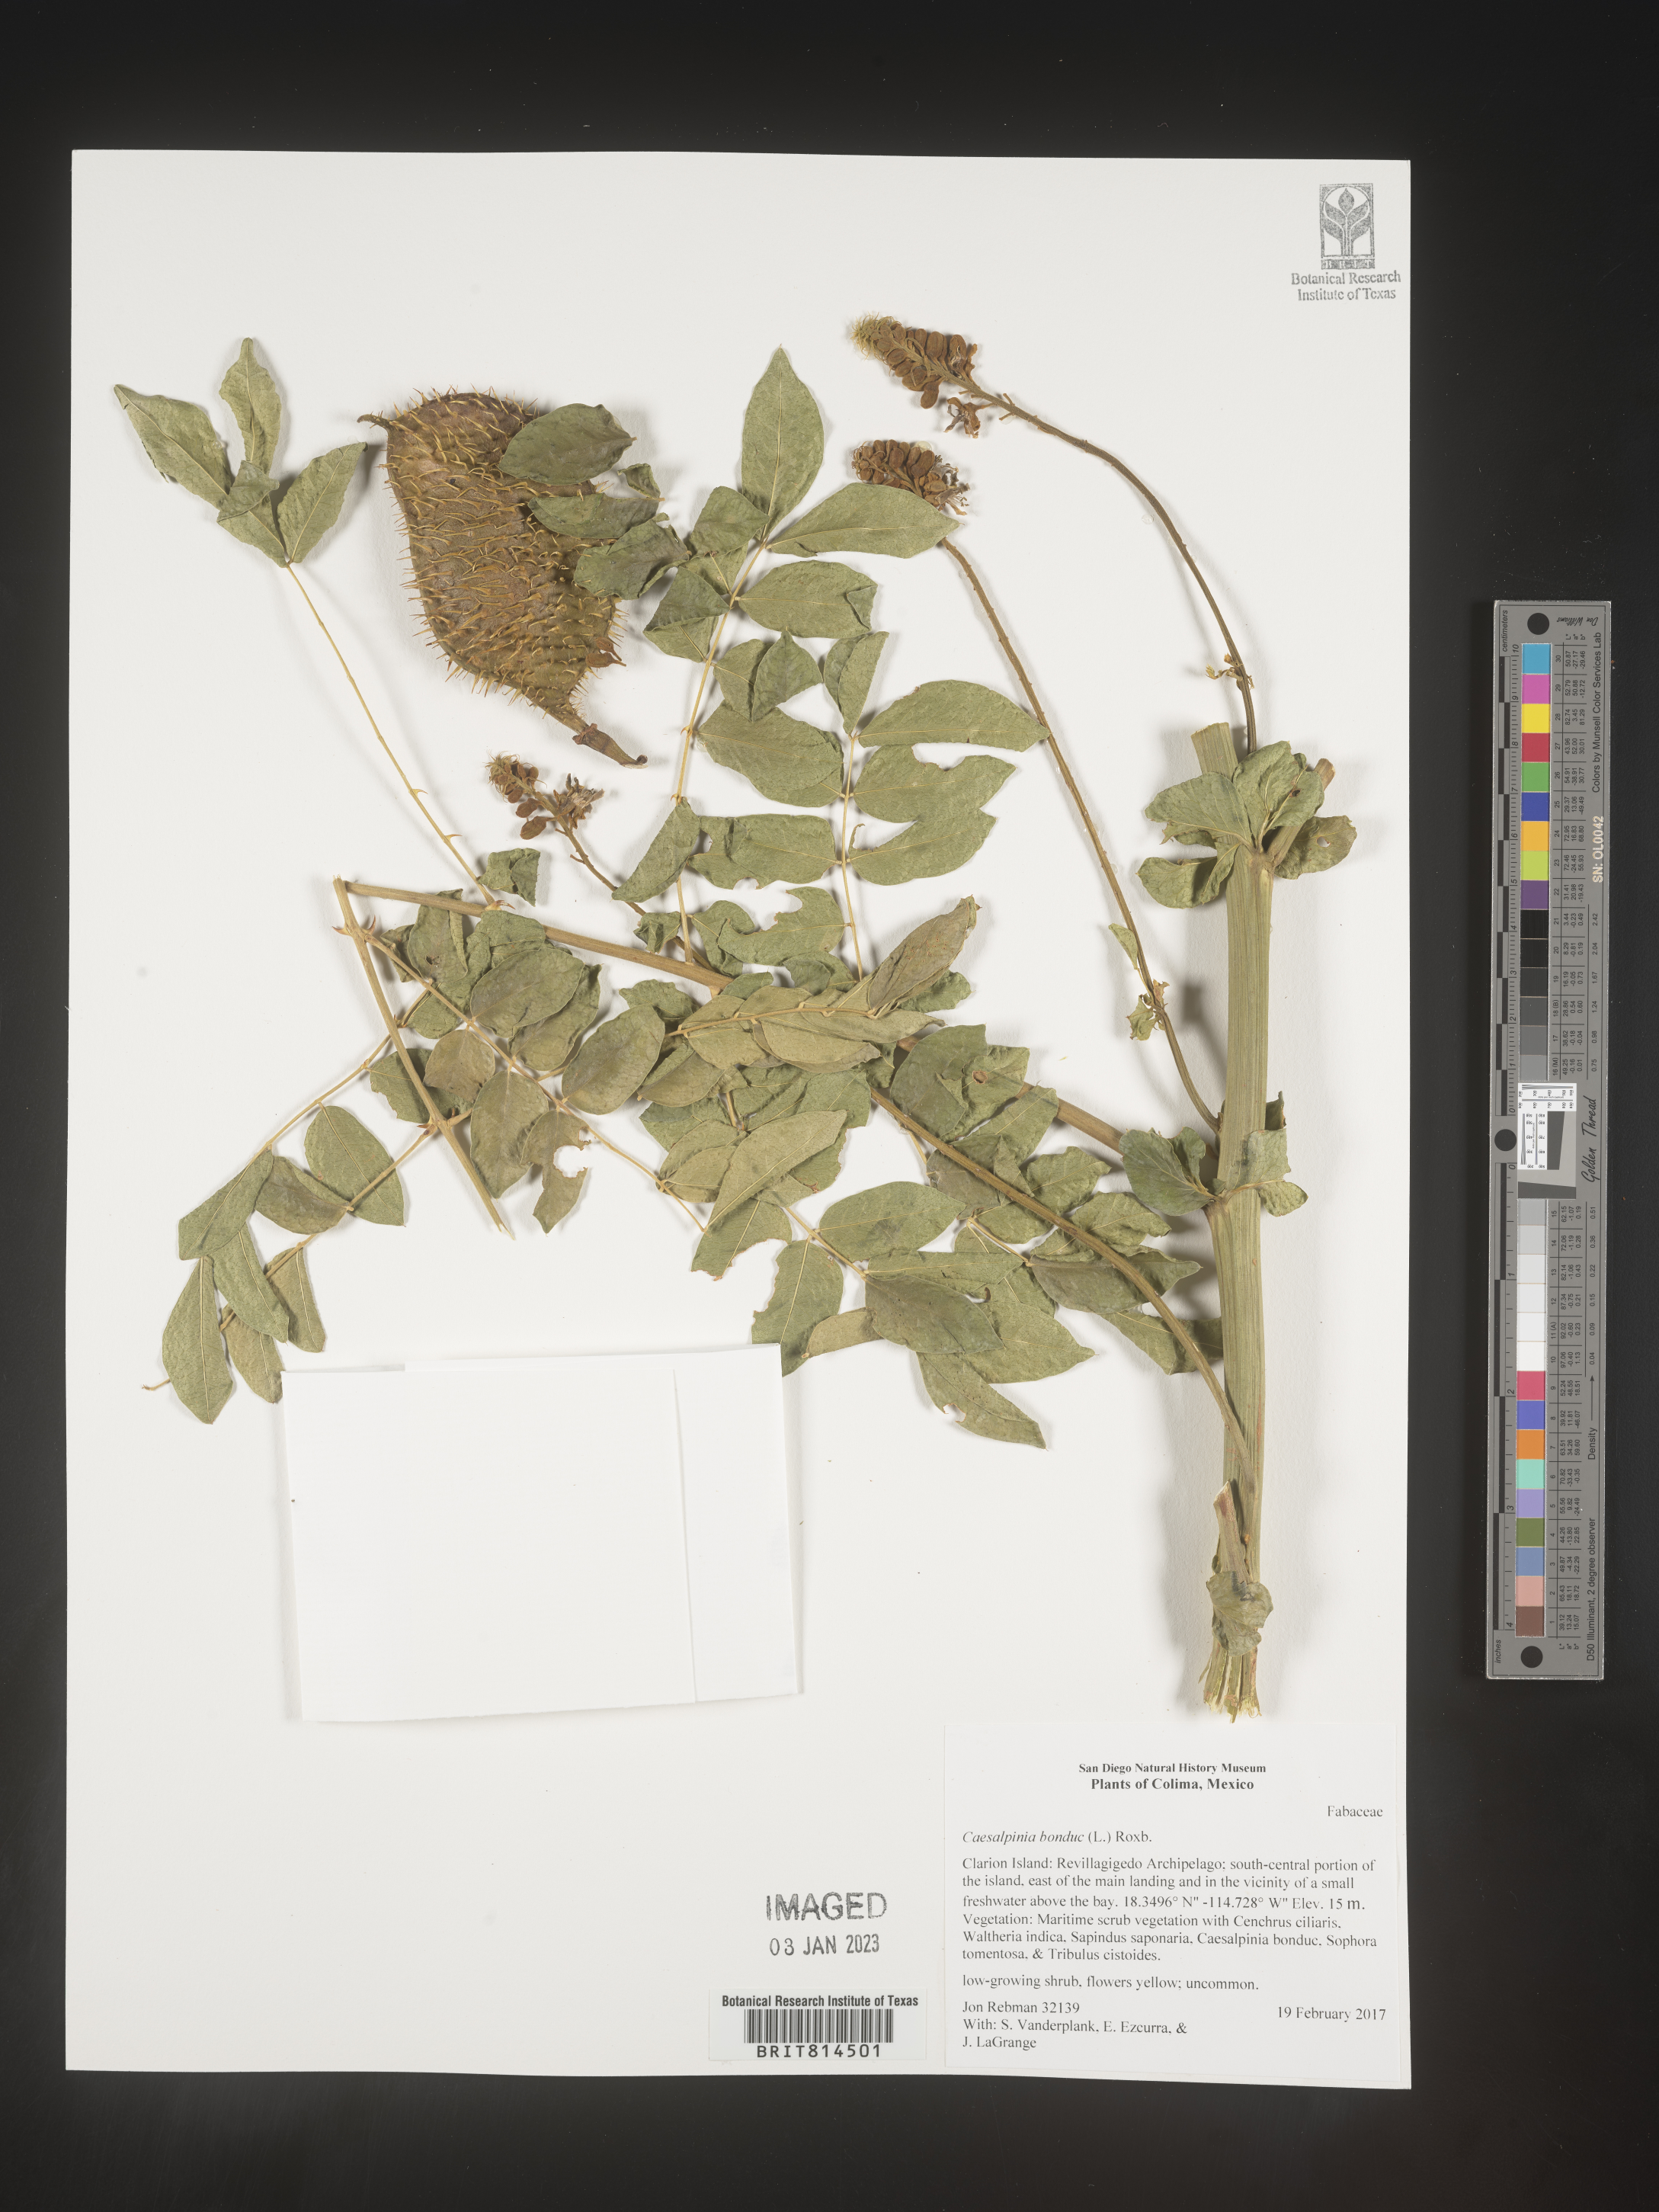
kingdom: Plantae
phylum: Tracheophyta
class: Magnoliopsida
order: Fabales
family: Fabaceae
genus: Caesalpinia
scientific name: Caesalpinia
